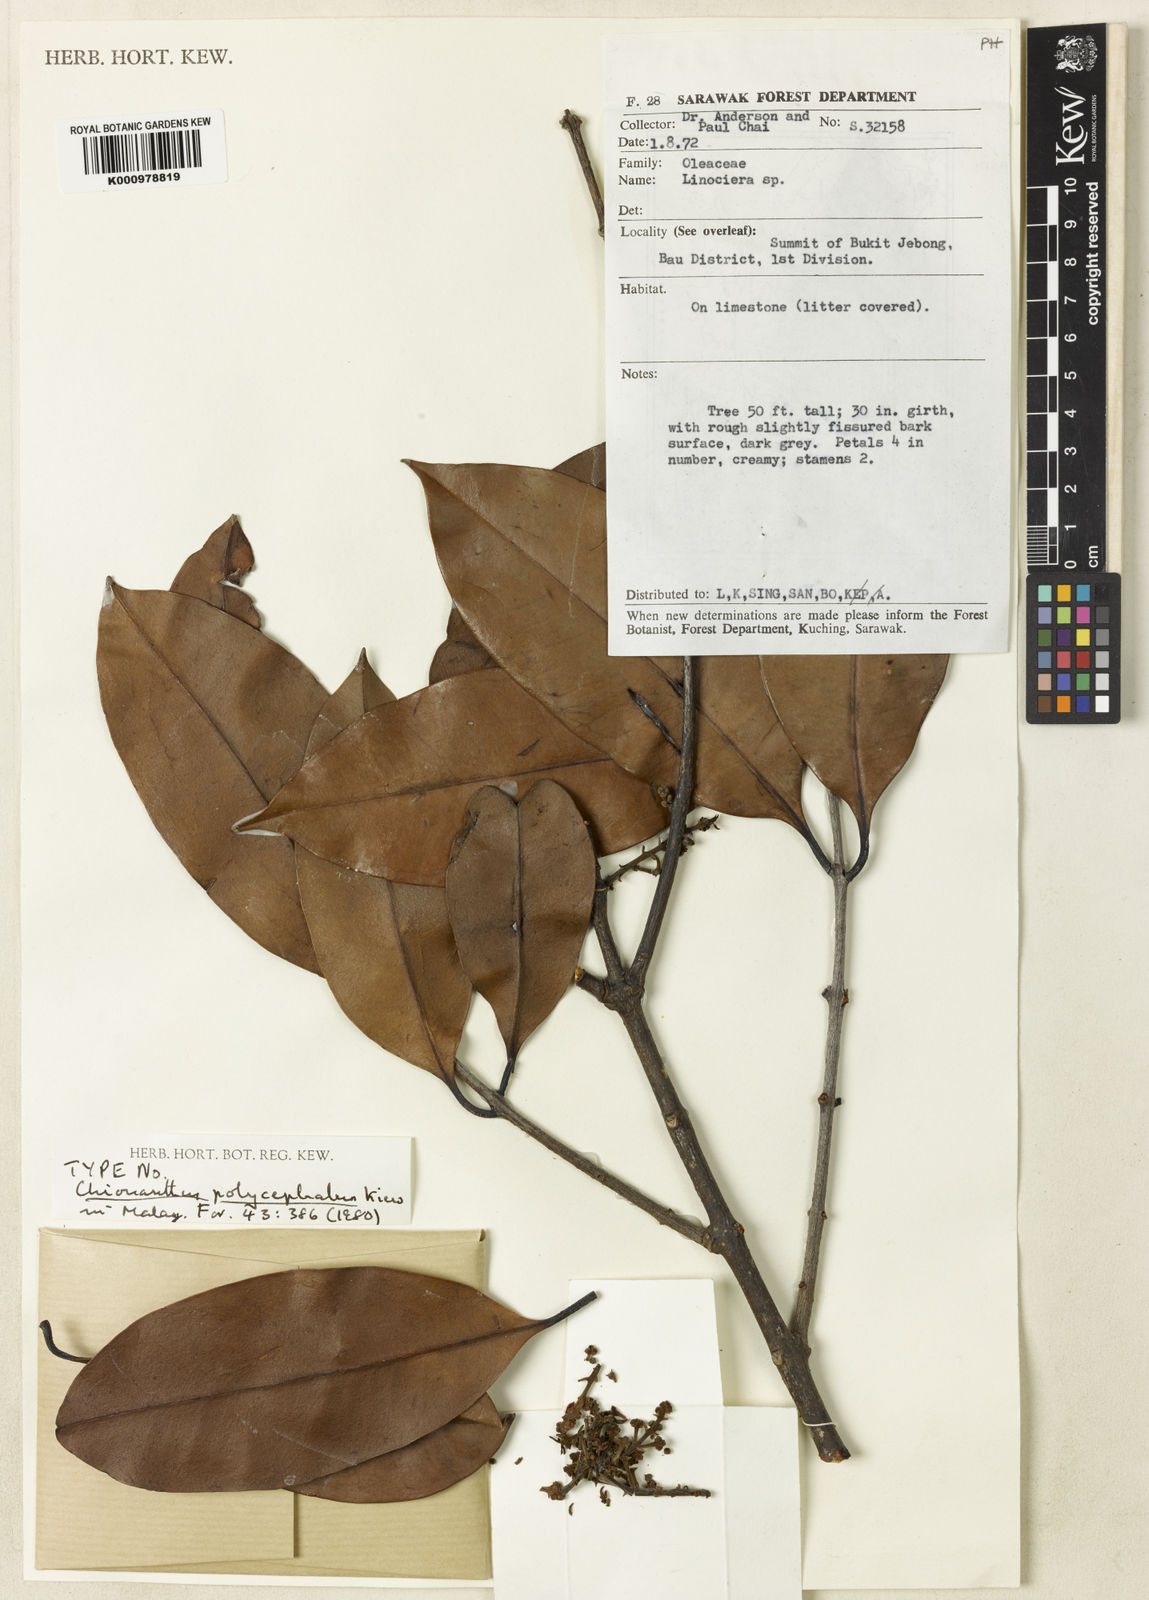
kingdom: Plantae
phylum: Tracheophyta
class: Magnoliopsida
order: Lamiales
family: Oleaceae
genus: Chionanthus
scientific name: Chionanthus polycephalus
